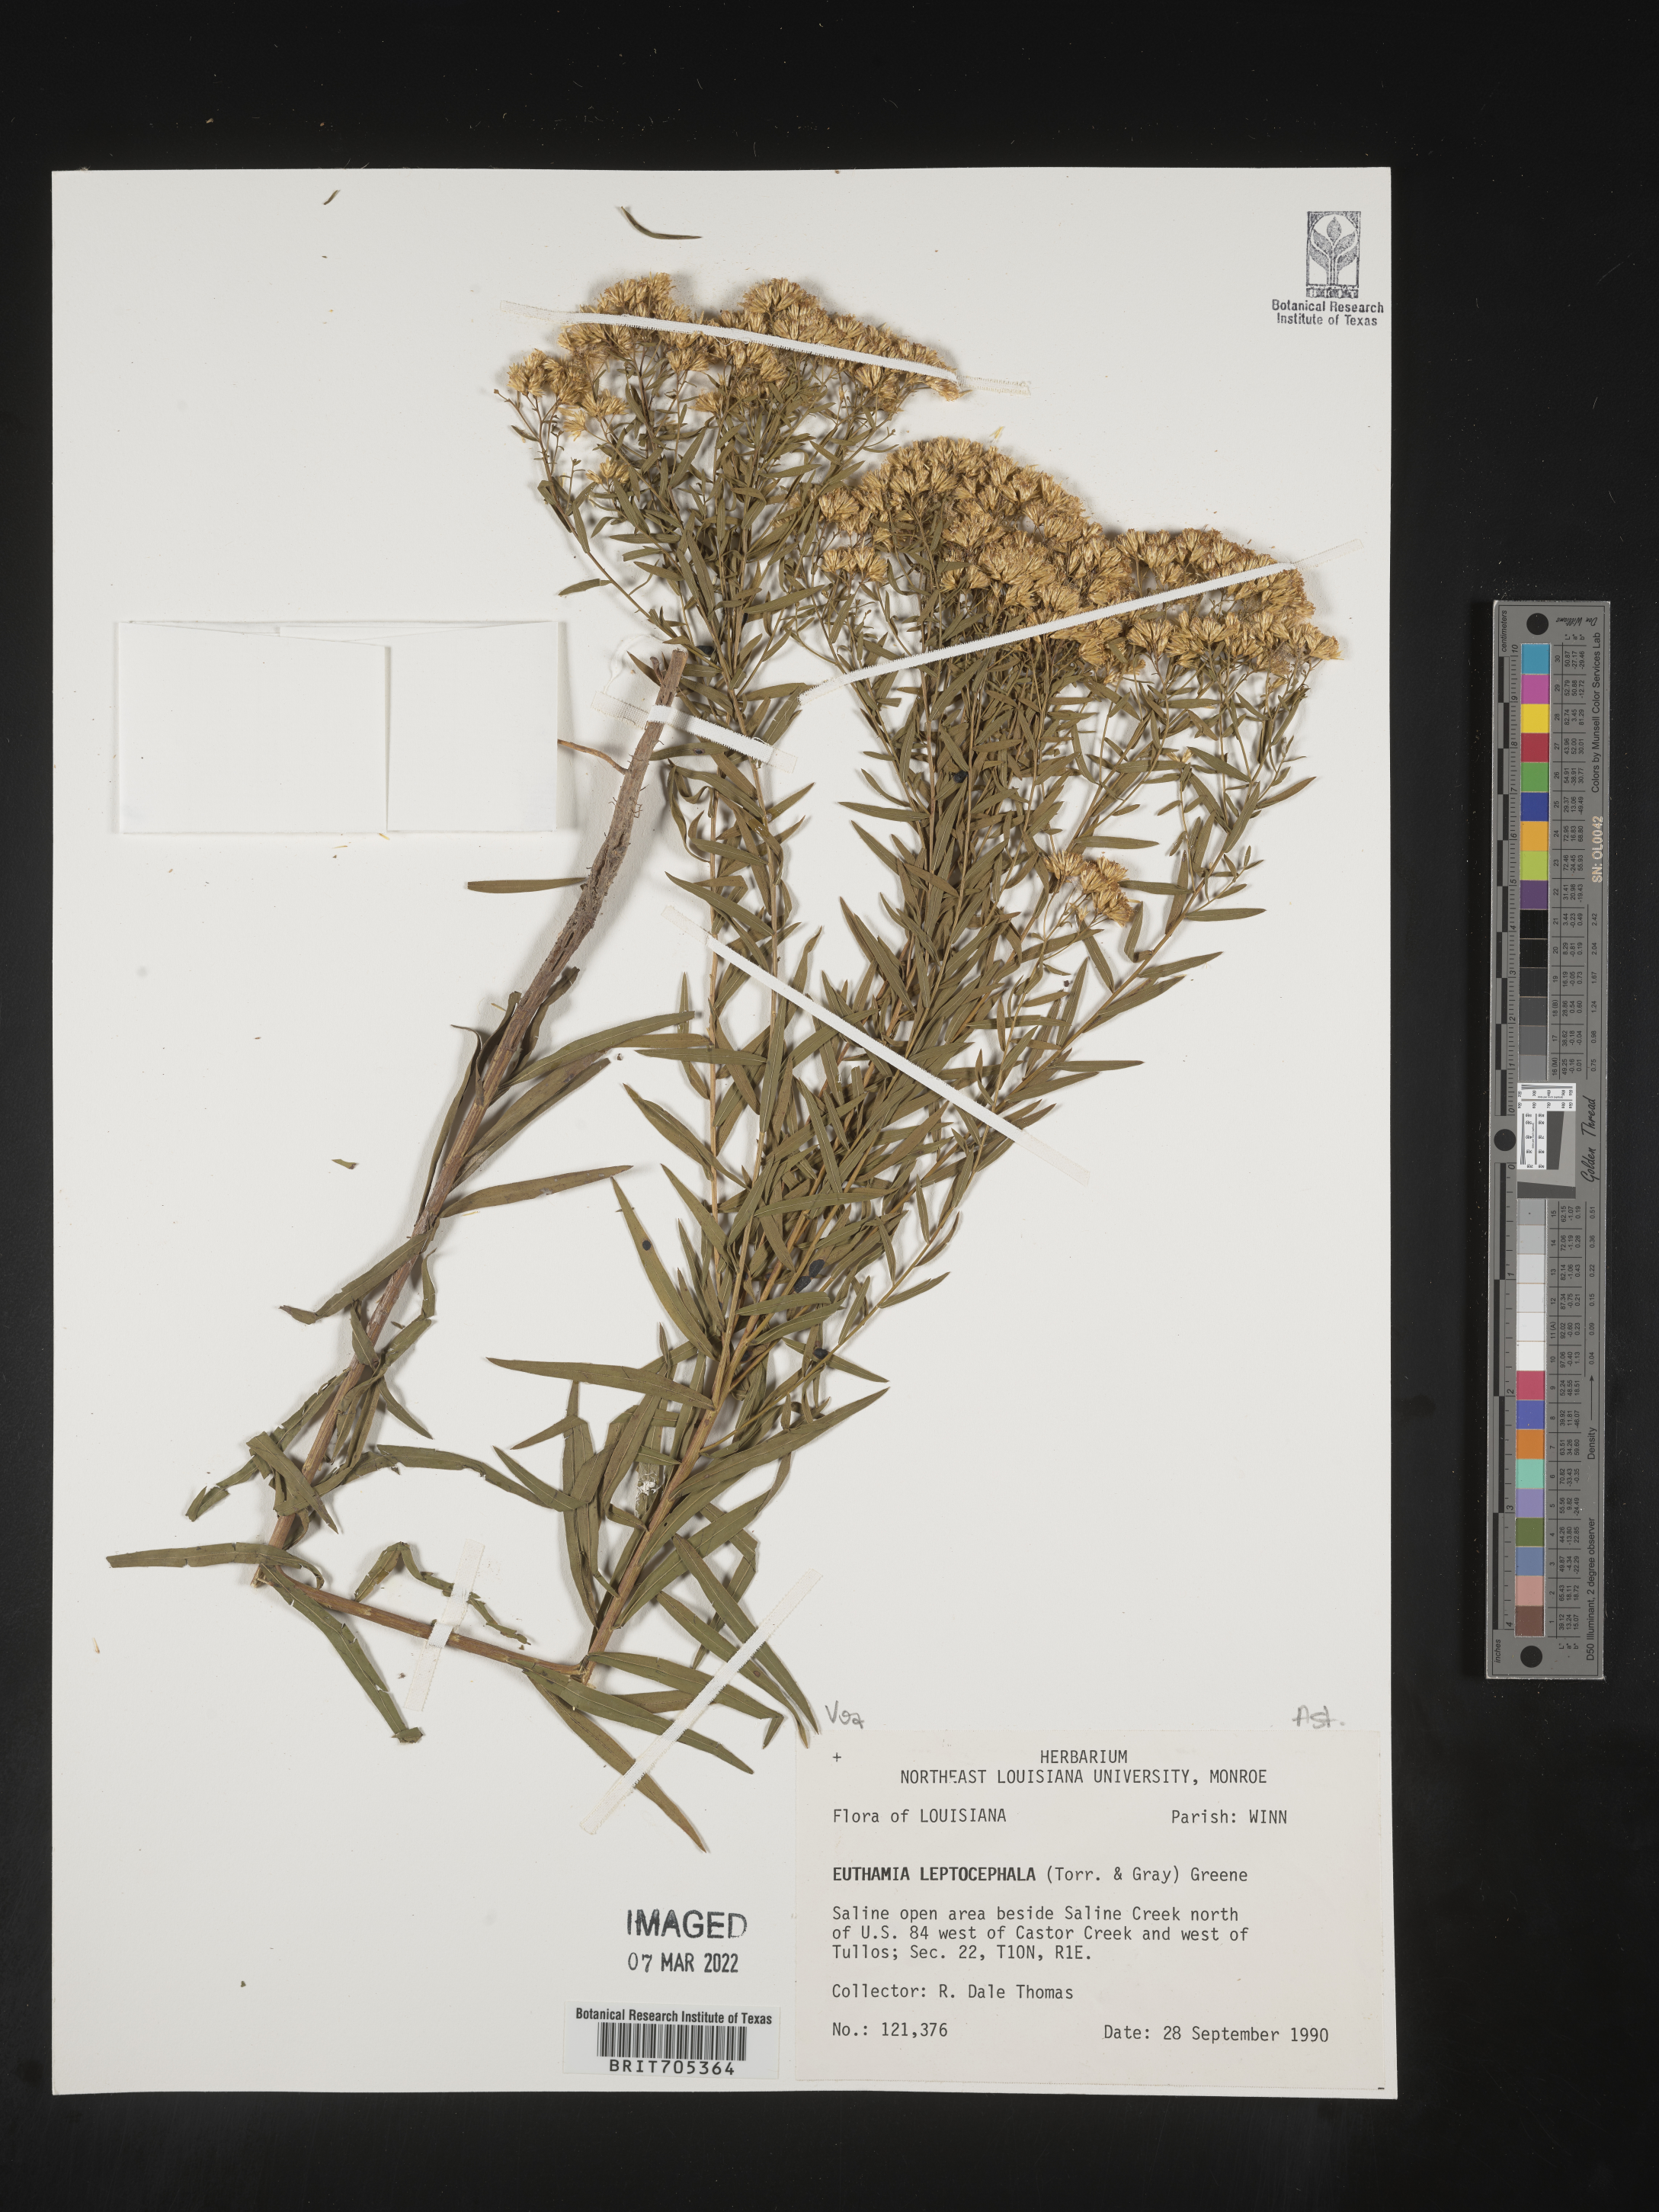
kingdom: Plantae
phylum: Tracheophyta
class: Magnoliopsida
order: Asterales
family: Asteraceae
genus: Euthamia
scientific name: Euthamia leptocephala
